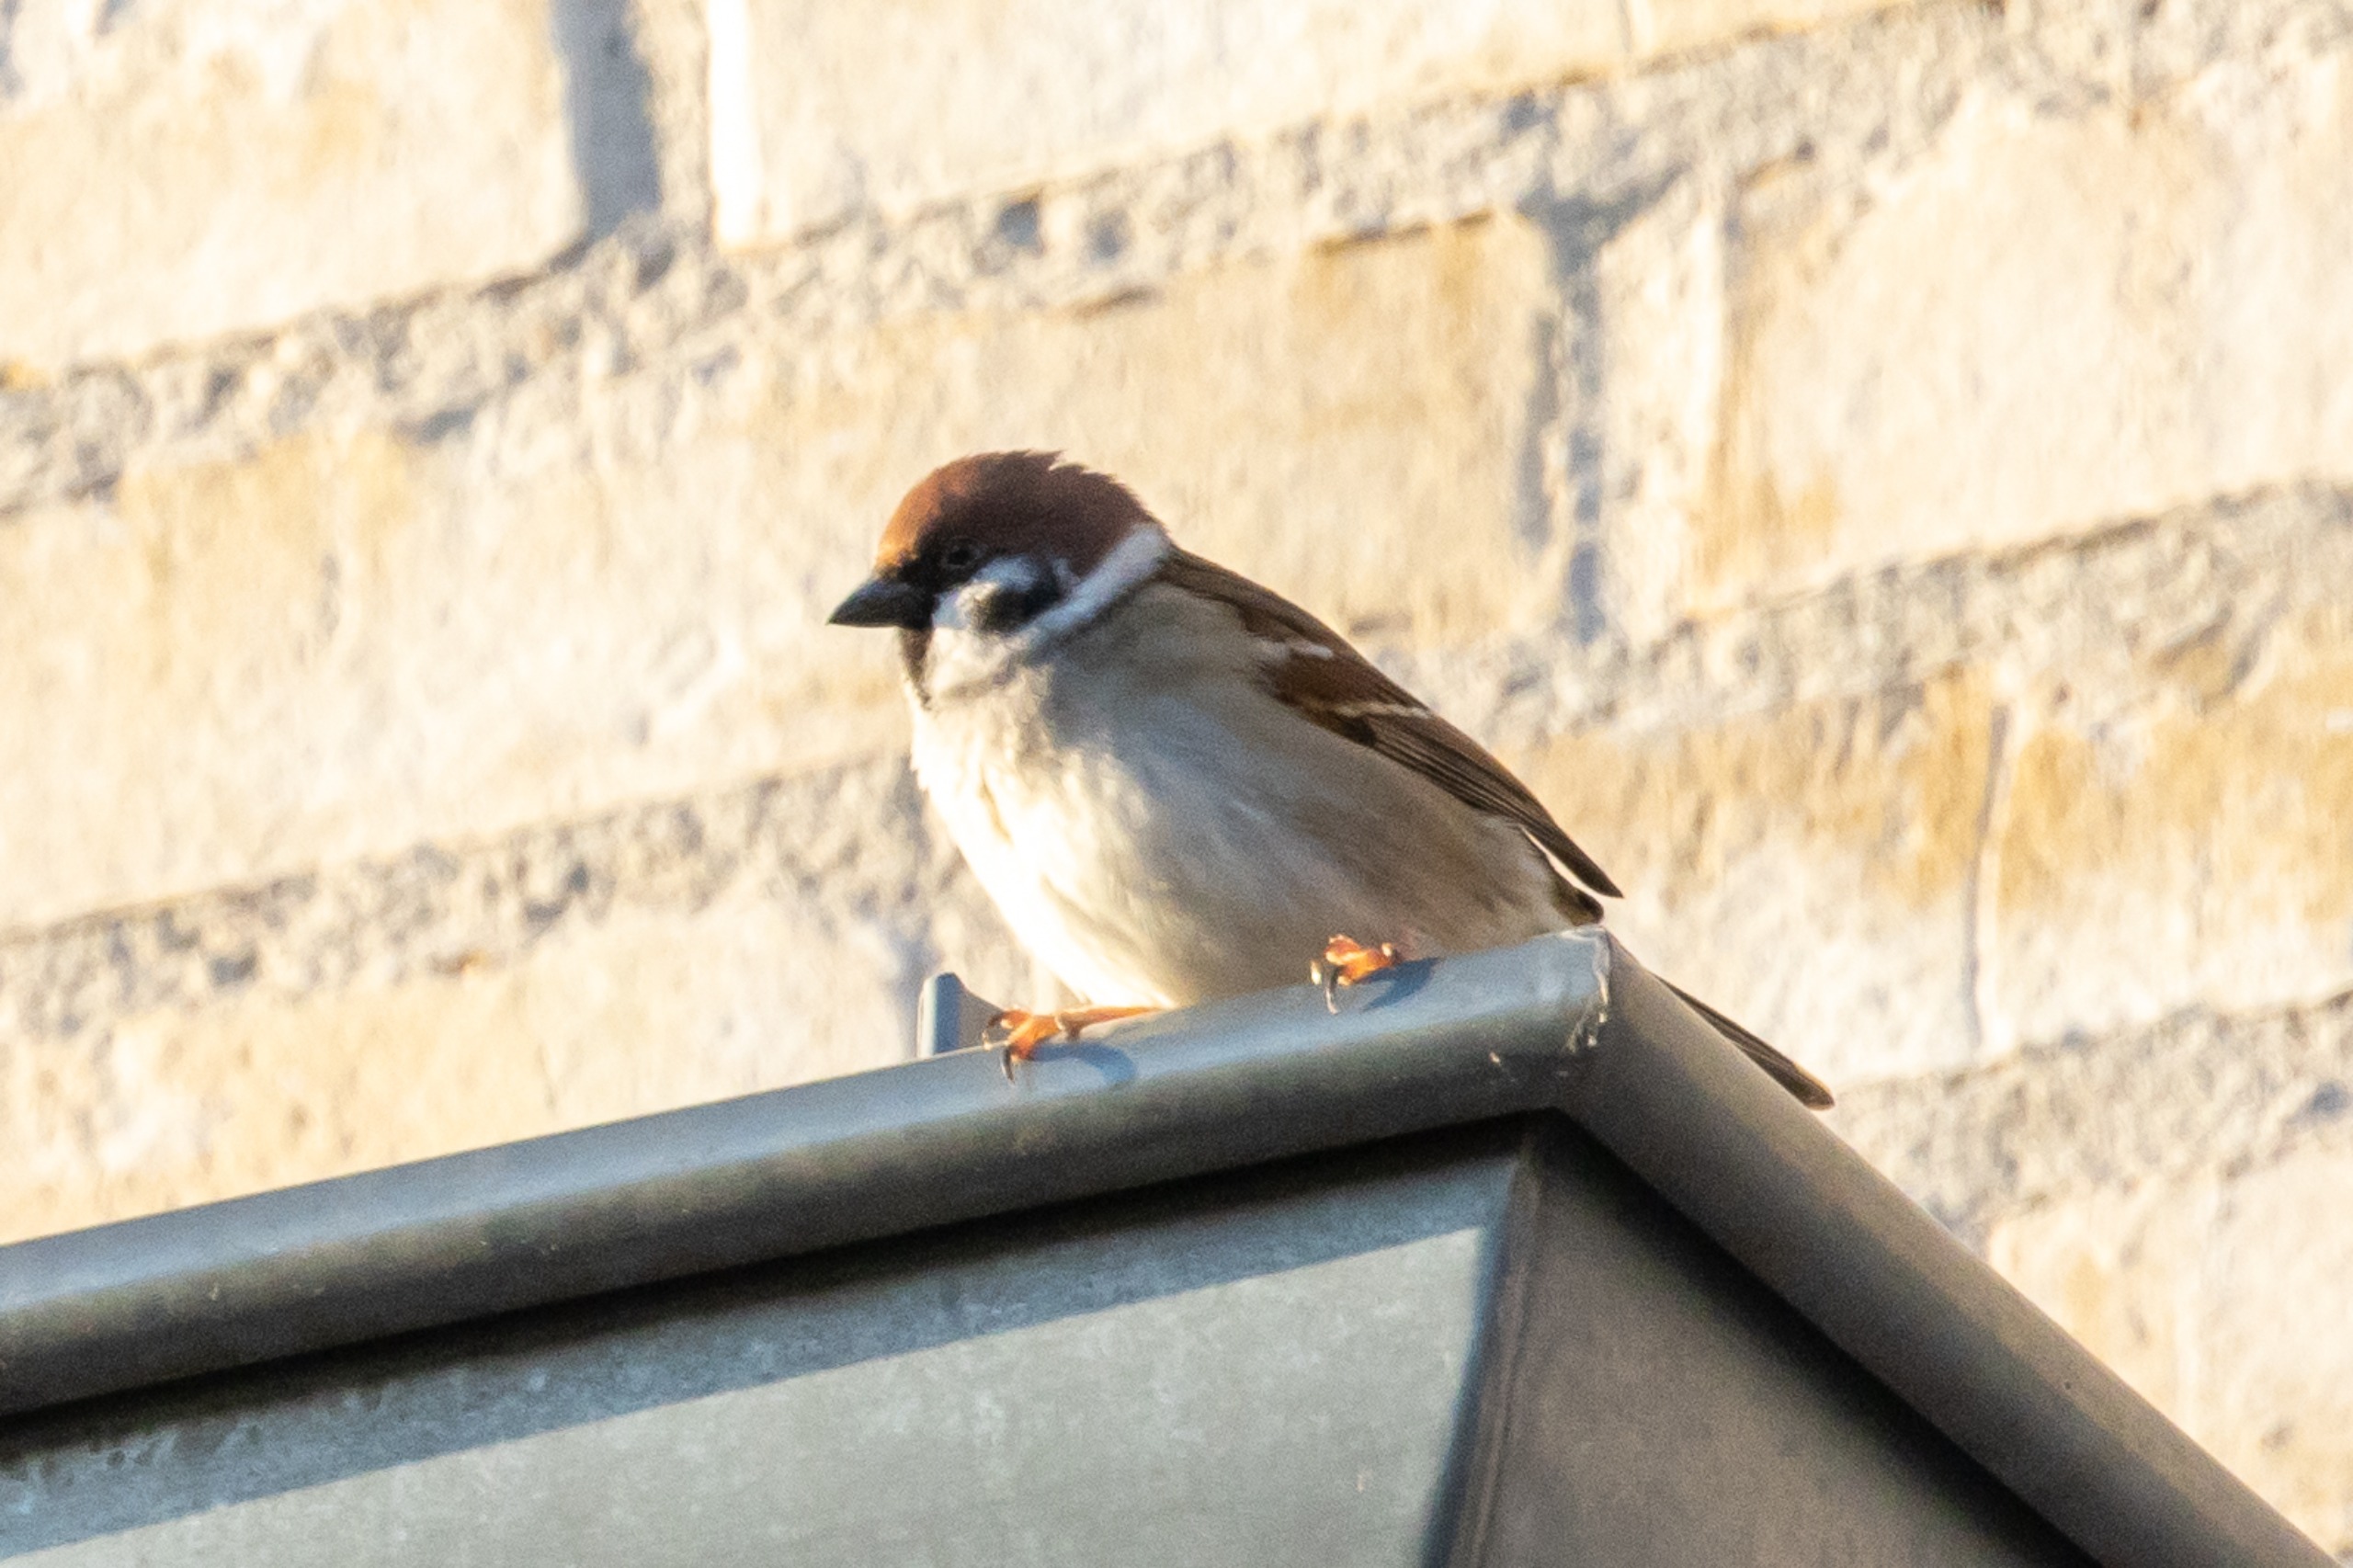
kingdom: Animalia
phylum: Chordata
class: Aves
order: Passeriformes
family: Passeridae
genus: Passer
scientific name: Passer montanus
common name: Skovspurv
